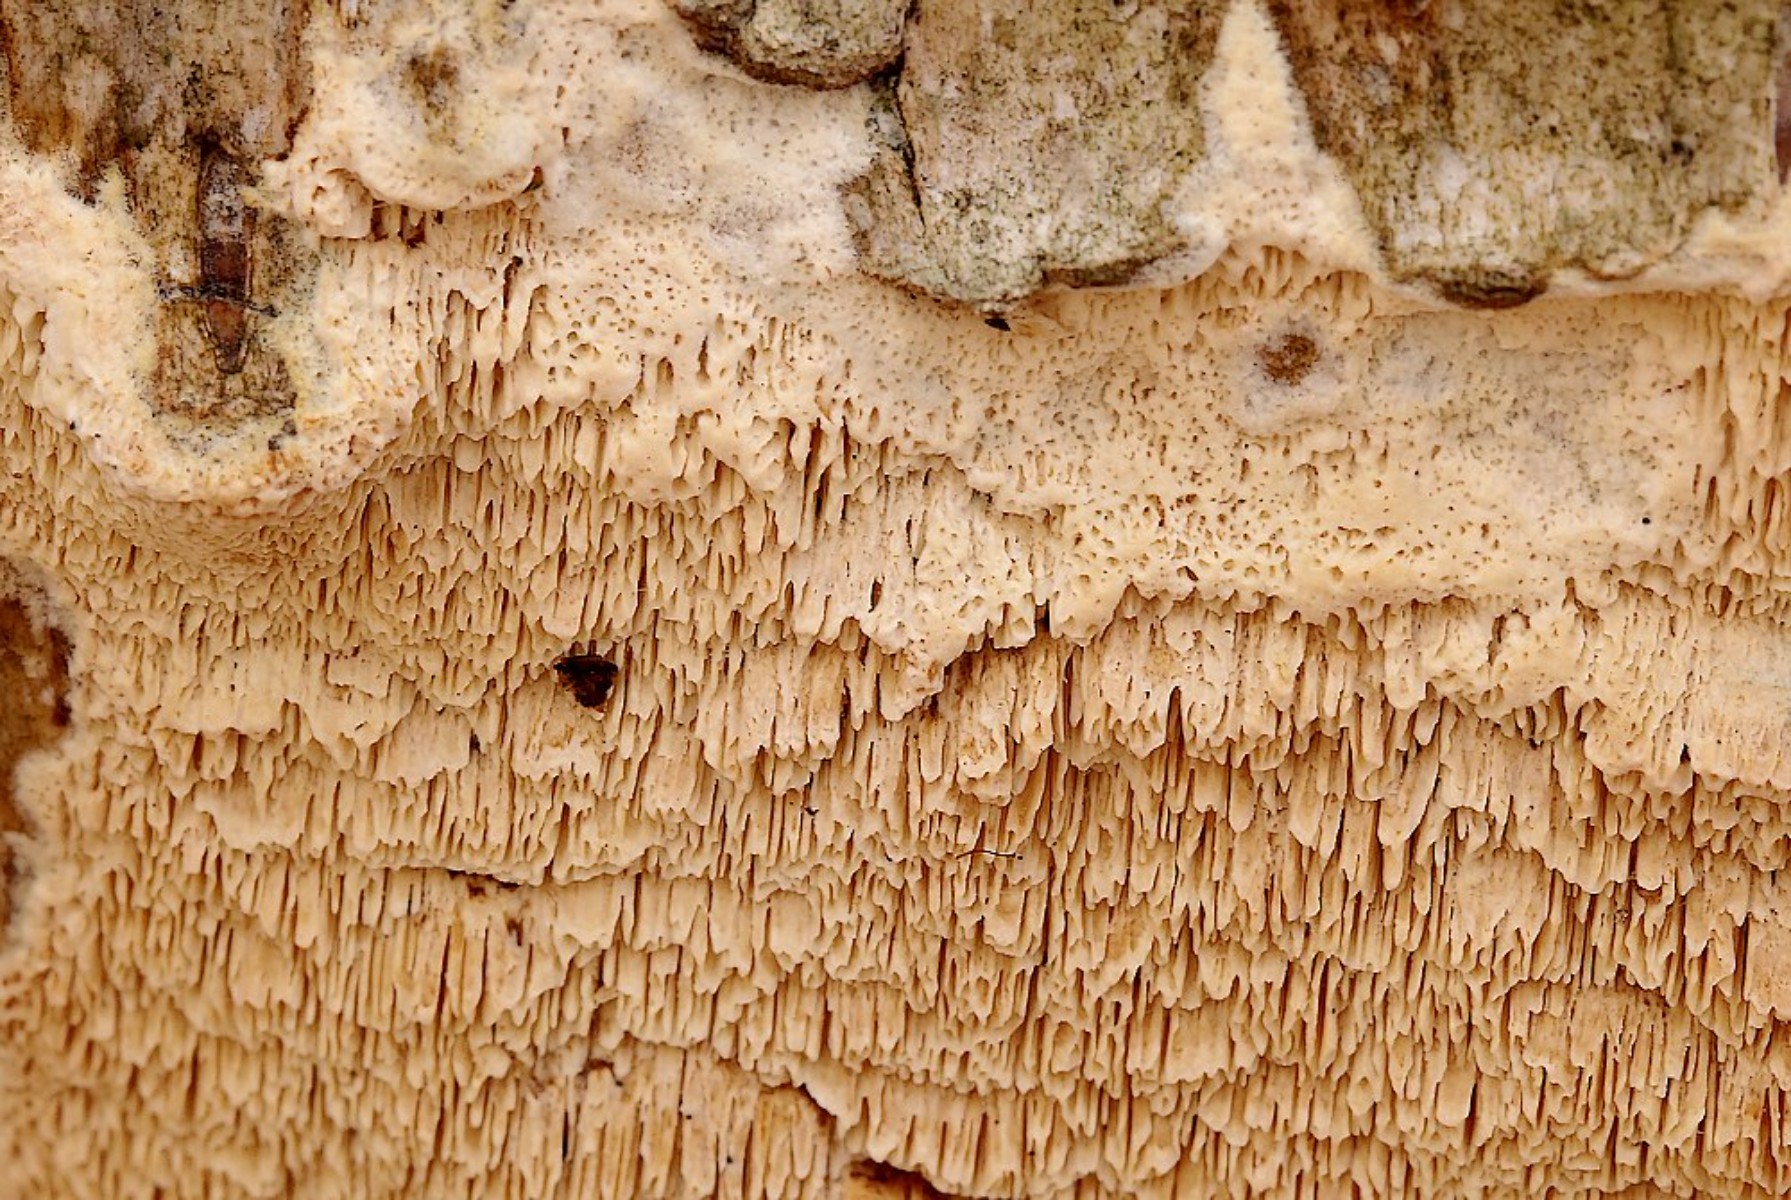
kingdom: Fungi
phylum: Basidiomycota
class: Agaricomycetes
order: Hymenochaetales
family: Schizoporaceae
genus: Schizopora
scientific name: Schizopora paradoxa
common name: hvid tandsvamp
